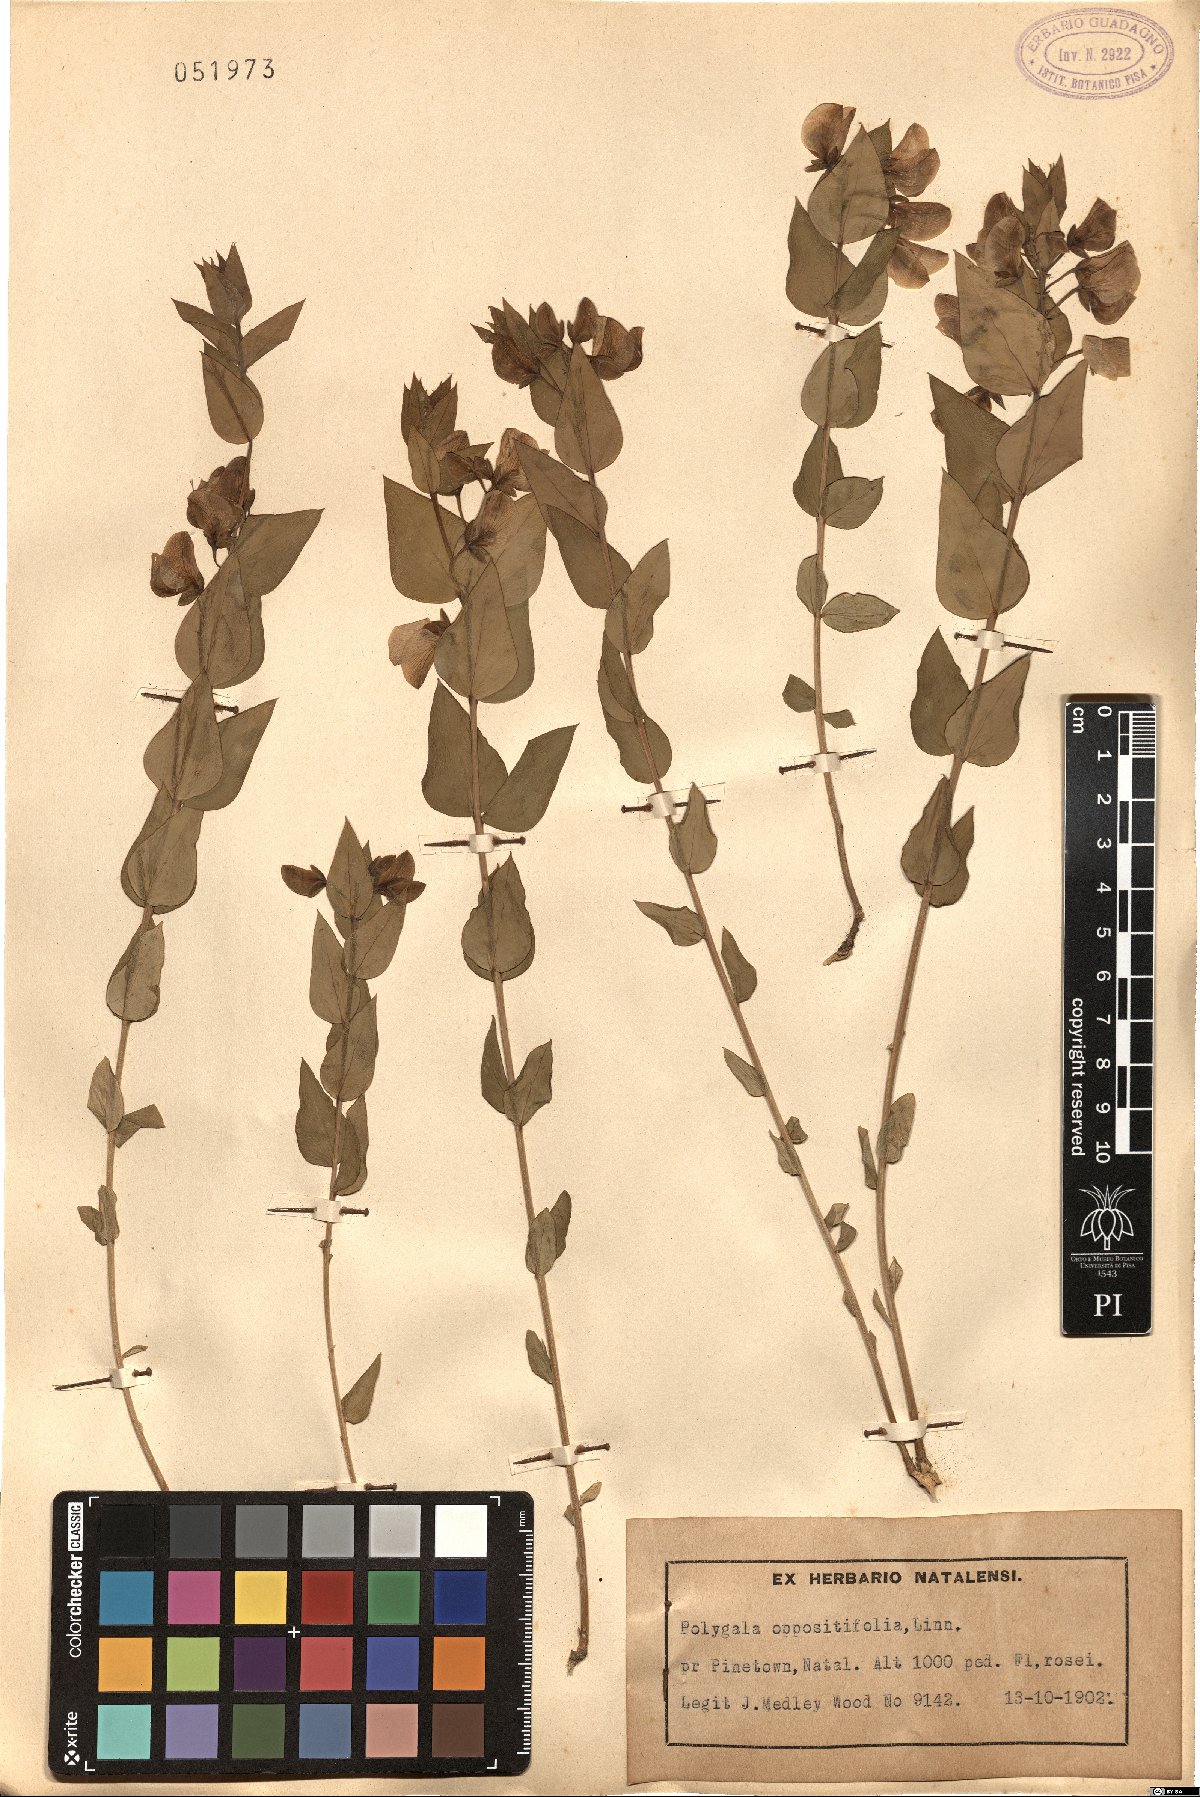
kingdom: Plantae
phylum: Tracheophyta
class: Magnoliopsida
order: Fabales
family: Polygalaceae
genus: Polygala
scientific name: Polygala fruticosa
